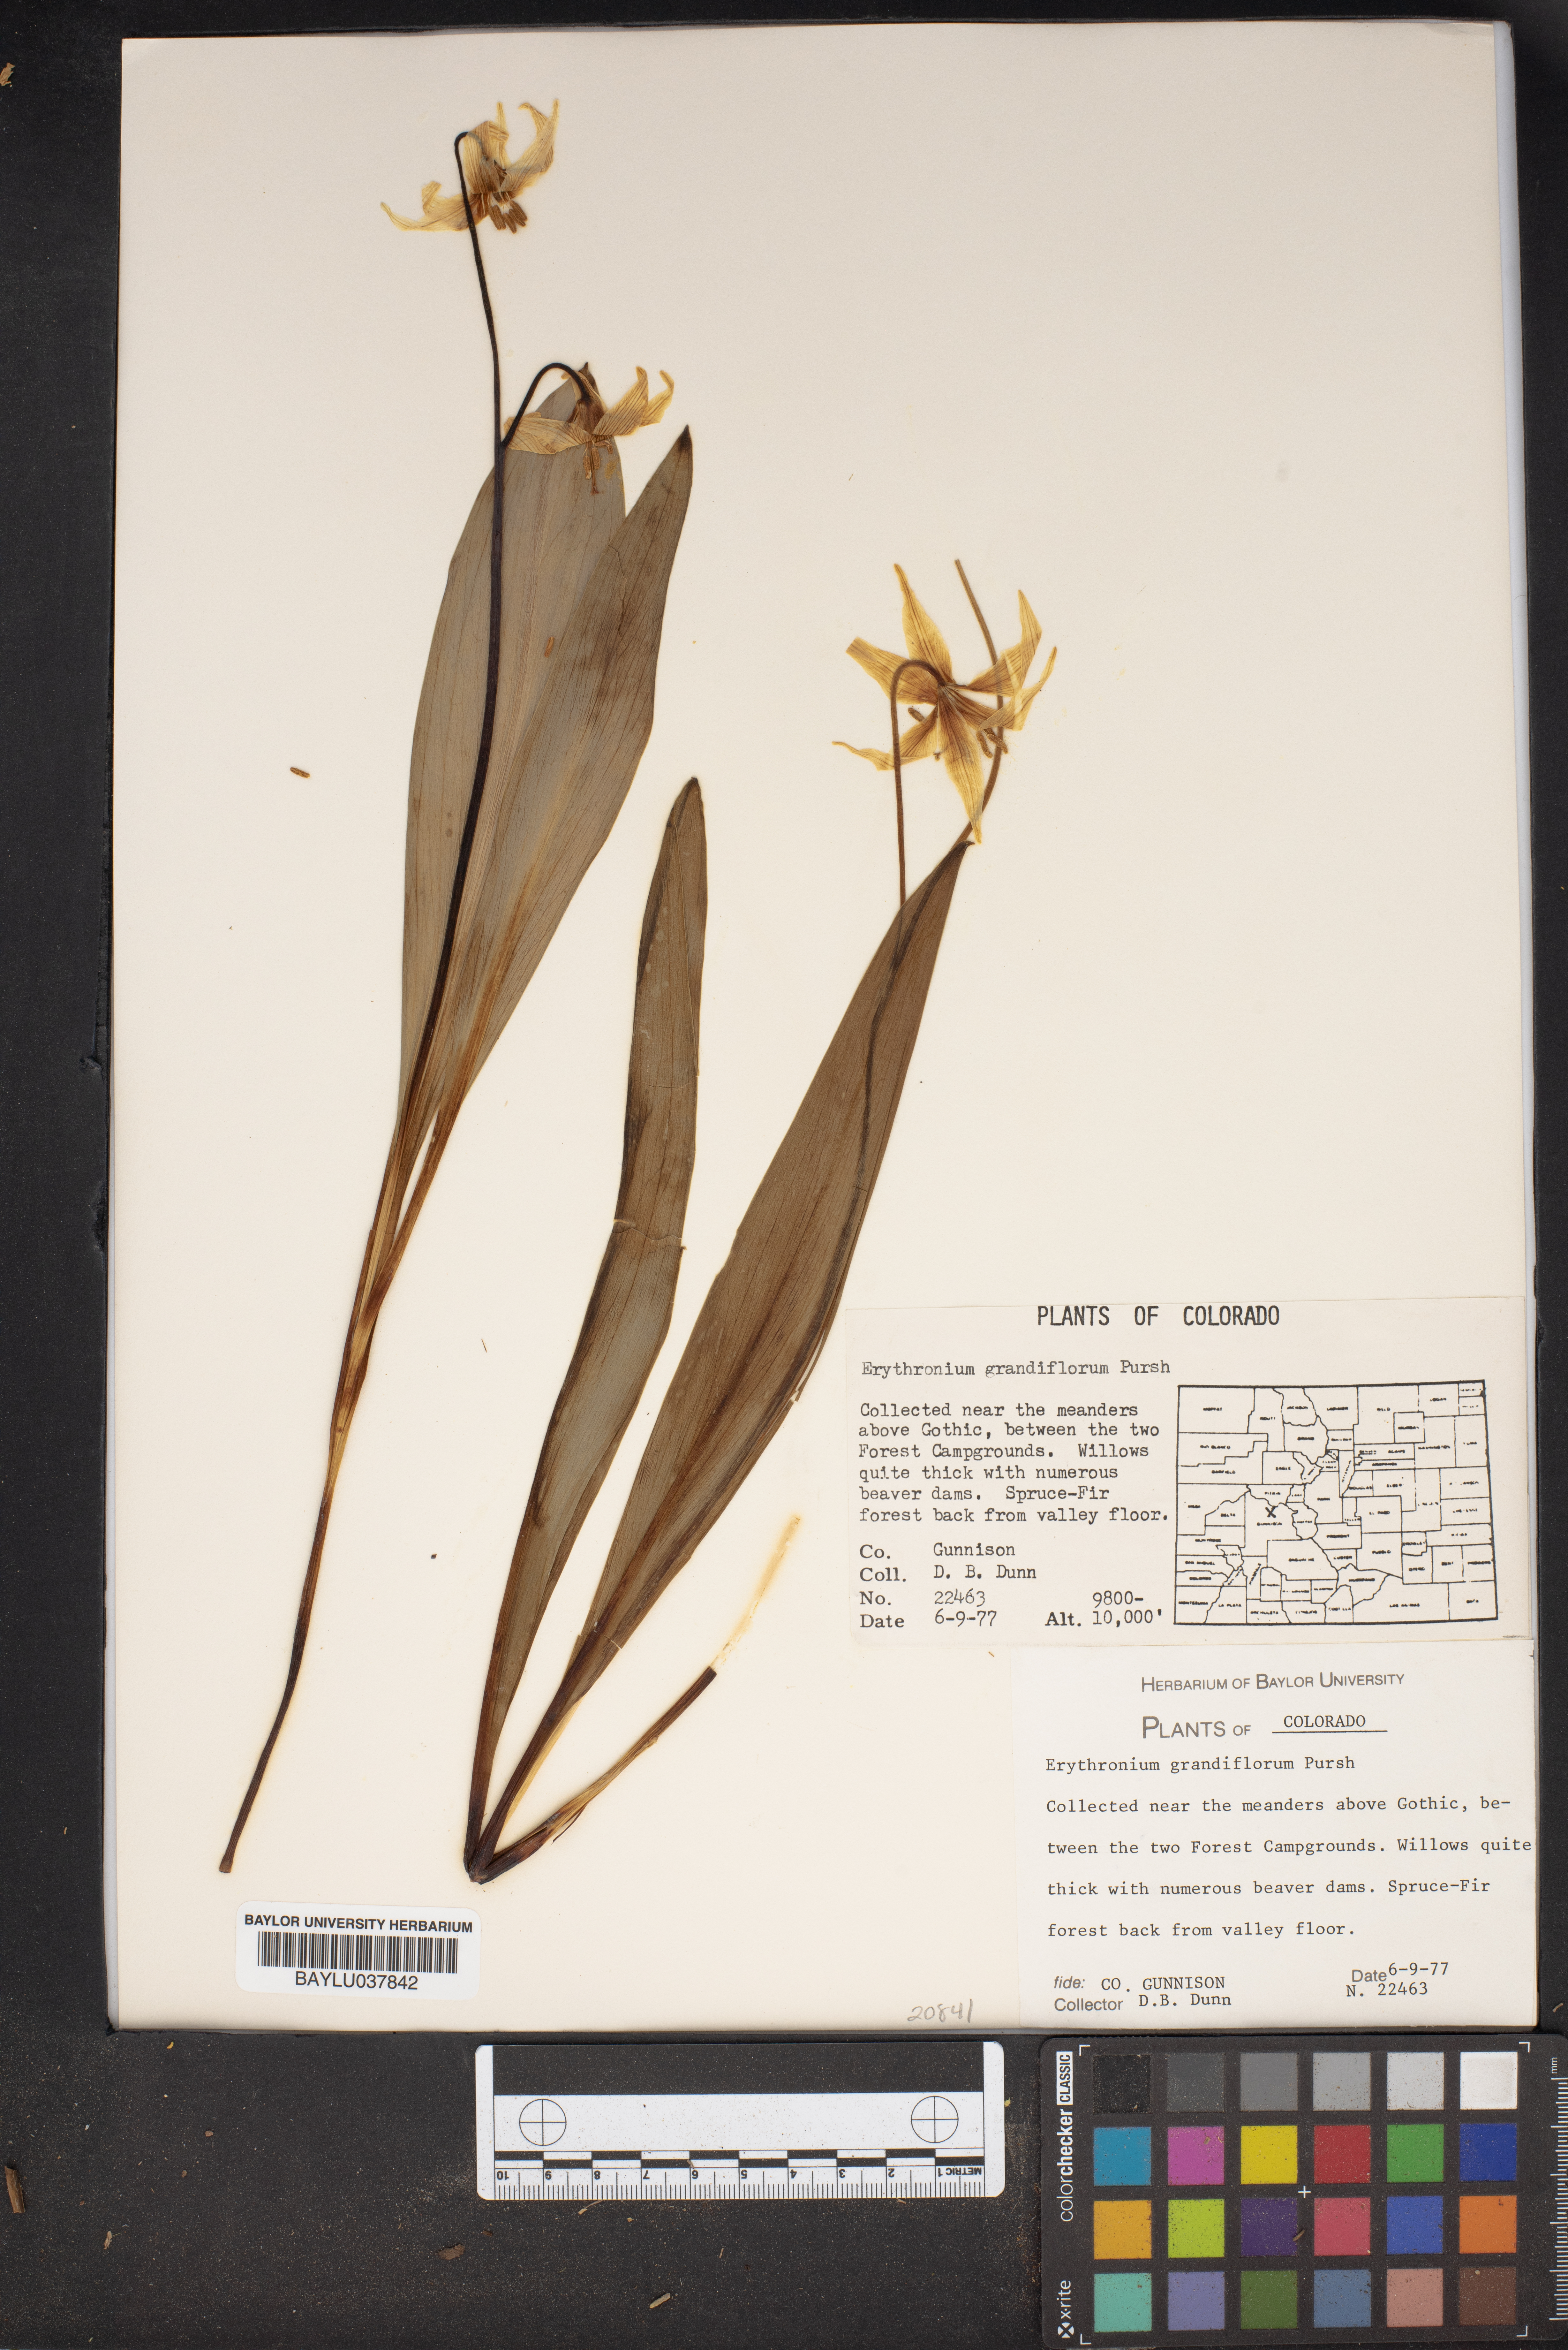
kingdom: Plantae
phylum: Tracheophyta
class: Liliopsida
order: Liliales
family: Liliaceae
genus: Erythronium
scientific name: Erythronium grandiflorum
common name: Avalanche-lily
